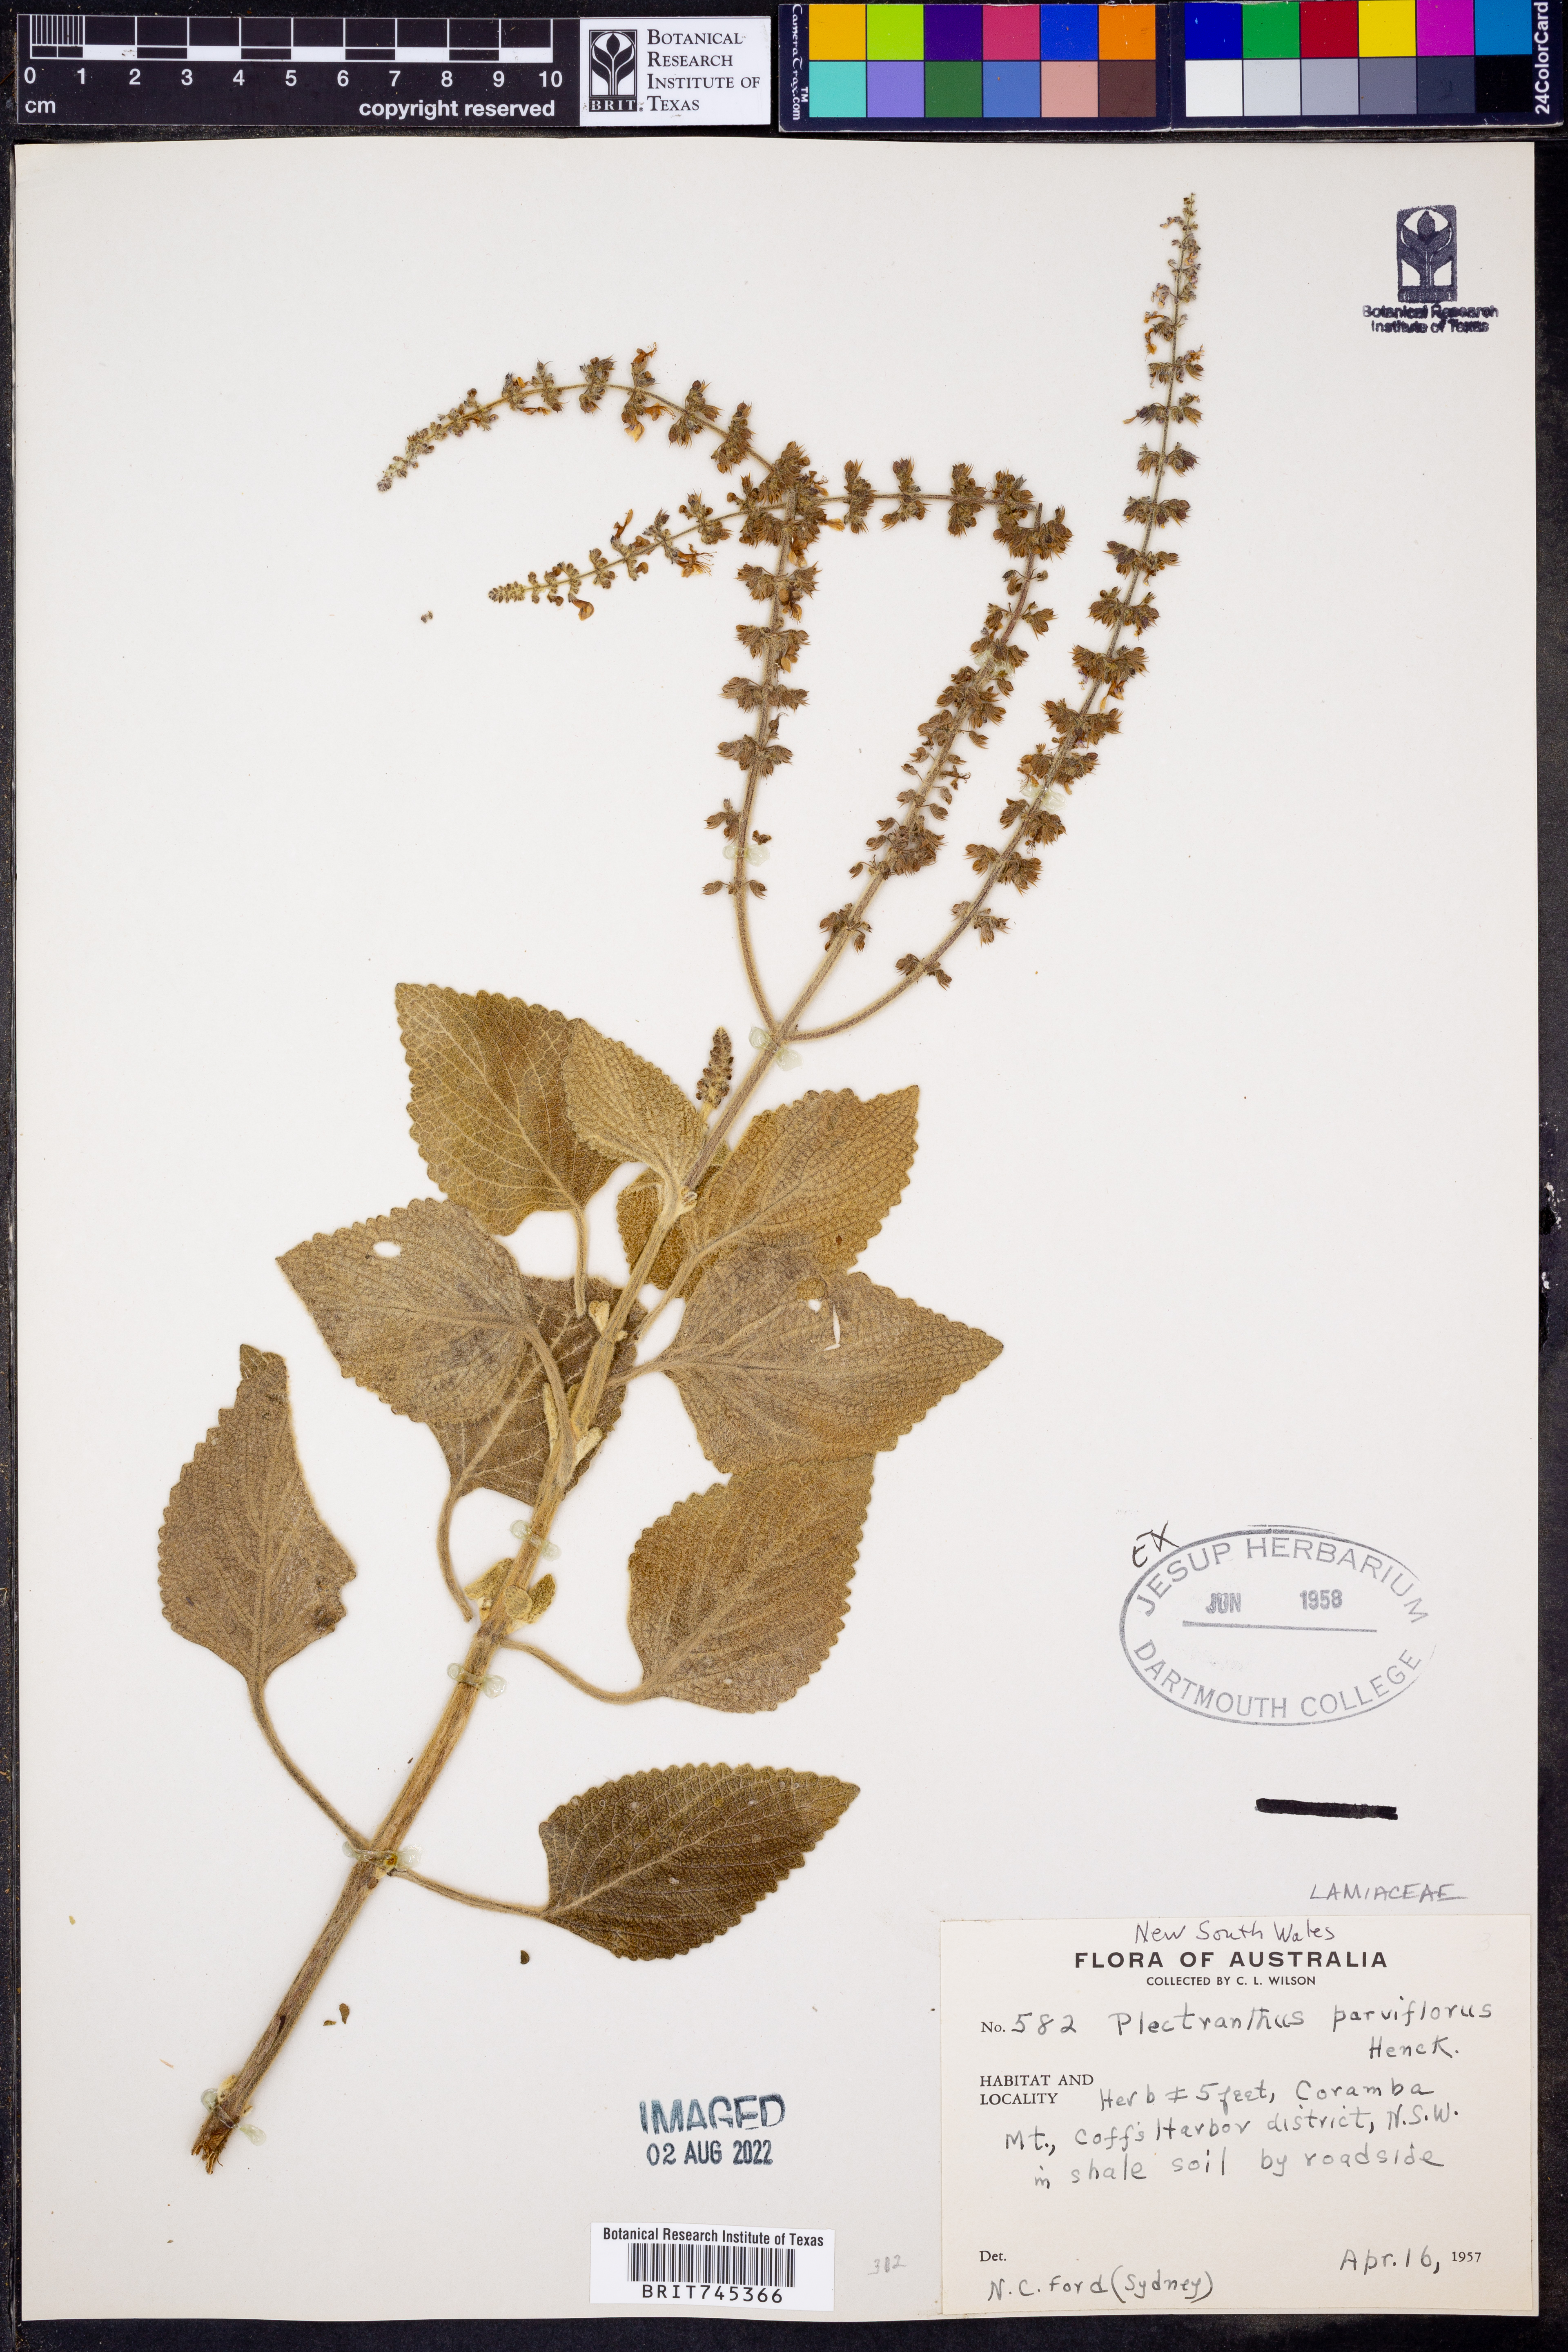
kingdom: Plantae
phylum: Tracheophyta
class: Magnoliopsida
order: Lamiales
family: Lamiaceae
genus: Plectranthus
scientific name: Plectranthus
